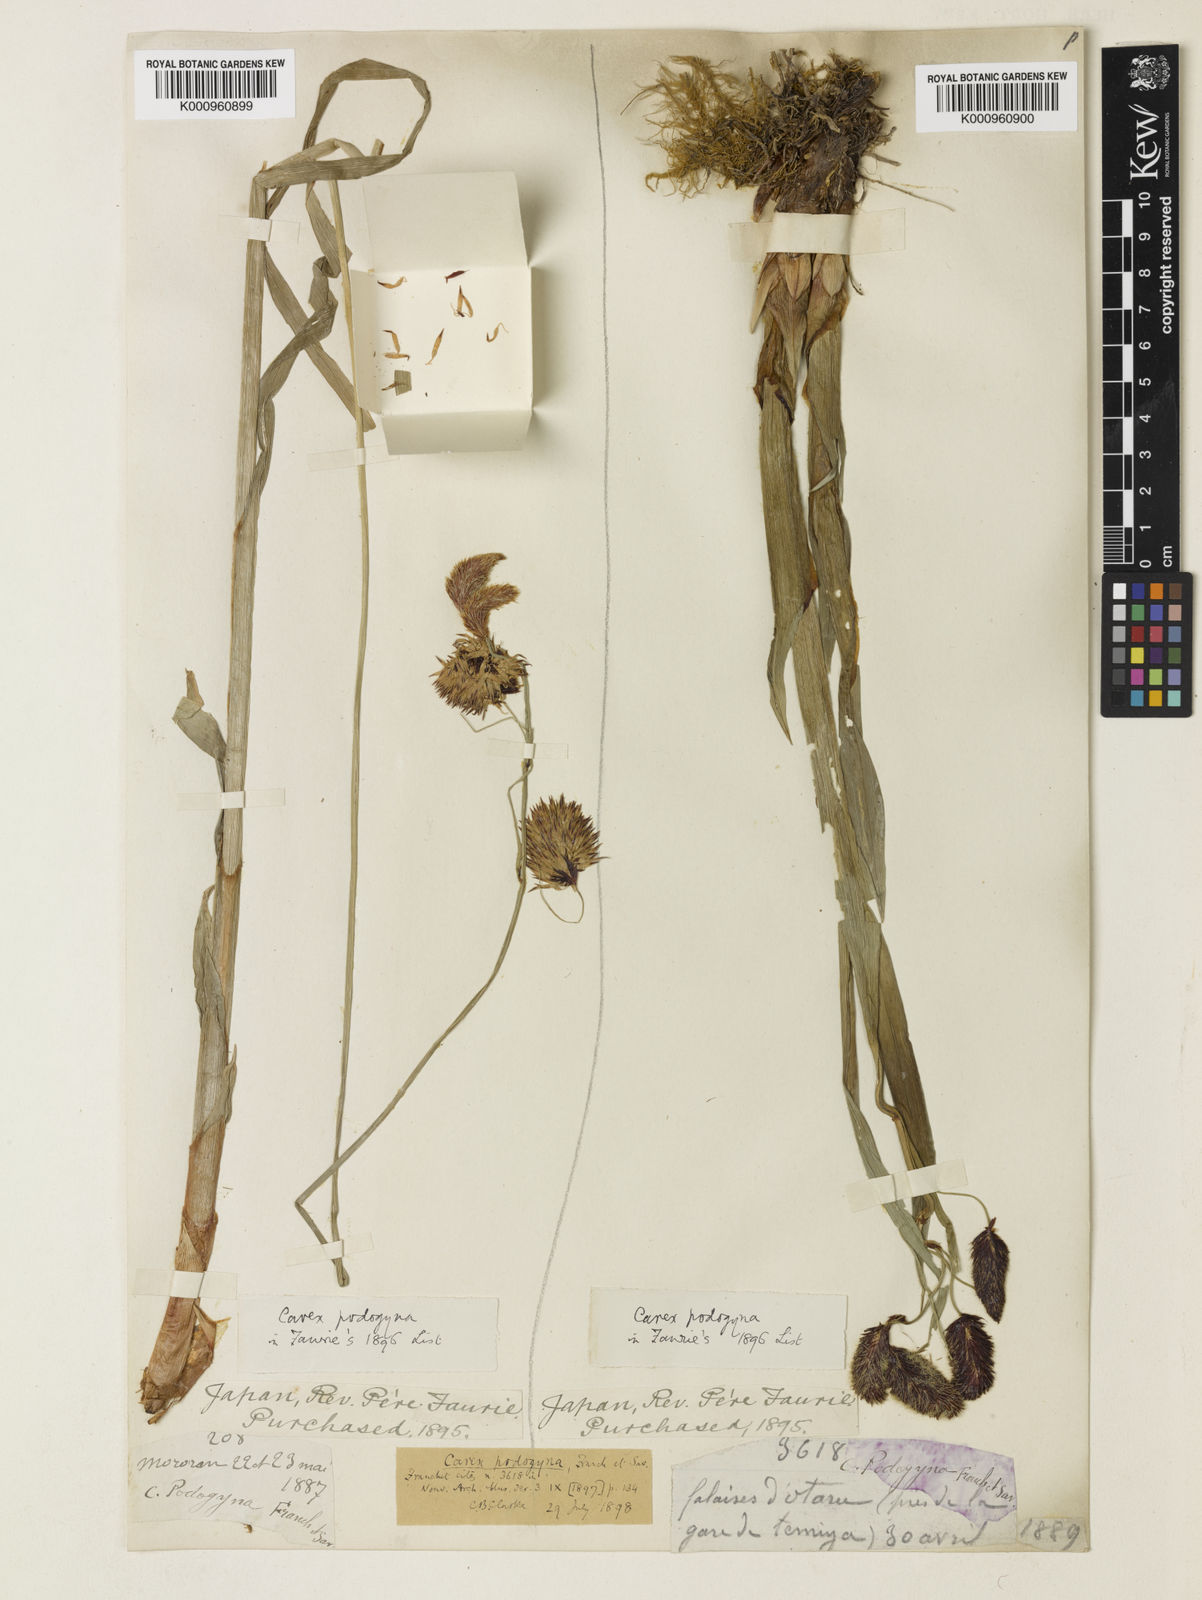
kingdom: Plantae
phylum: Tracheophyta
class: Liliopsida
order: Poales
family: Cyperaceae
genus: Carex
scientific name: Carex podogyna
